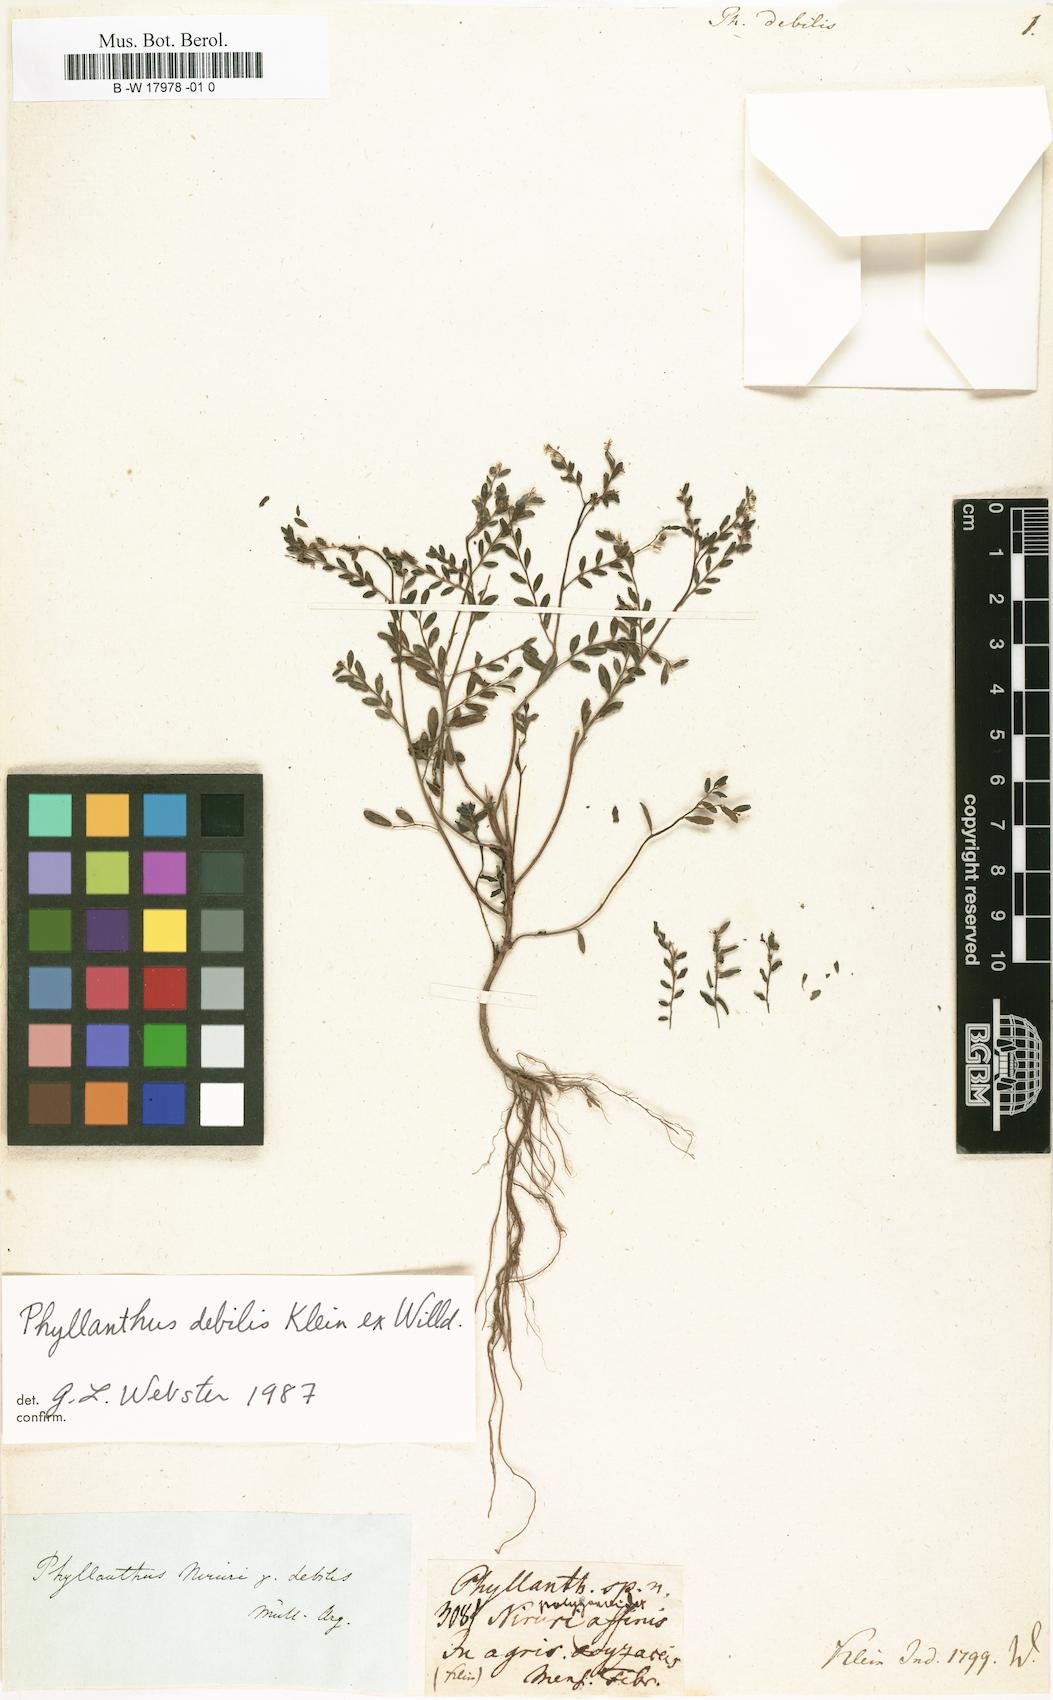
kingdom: Plantae
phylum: Tracheophyta
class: Magnoliopsida
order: Malpighiales
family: Phyllanthaceae
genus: Phyllanthus
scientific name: Phyllanthus debilis
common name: Niruri
